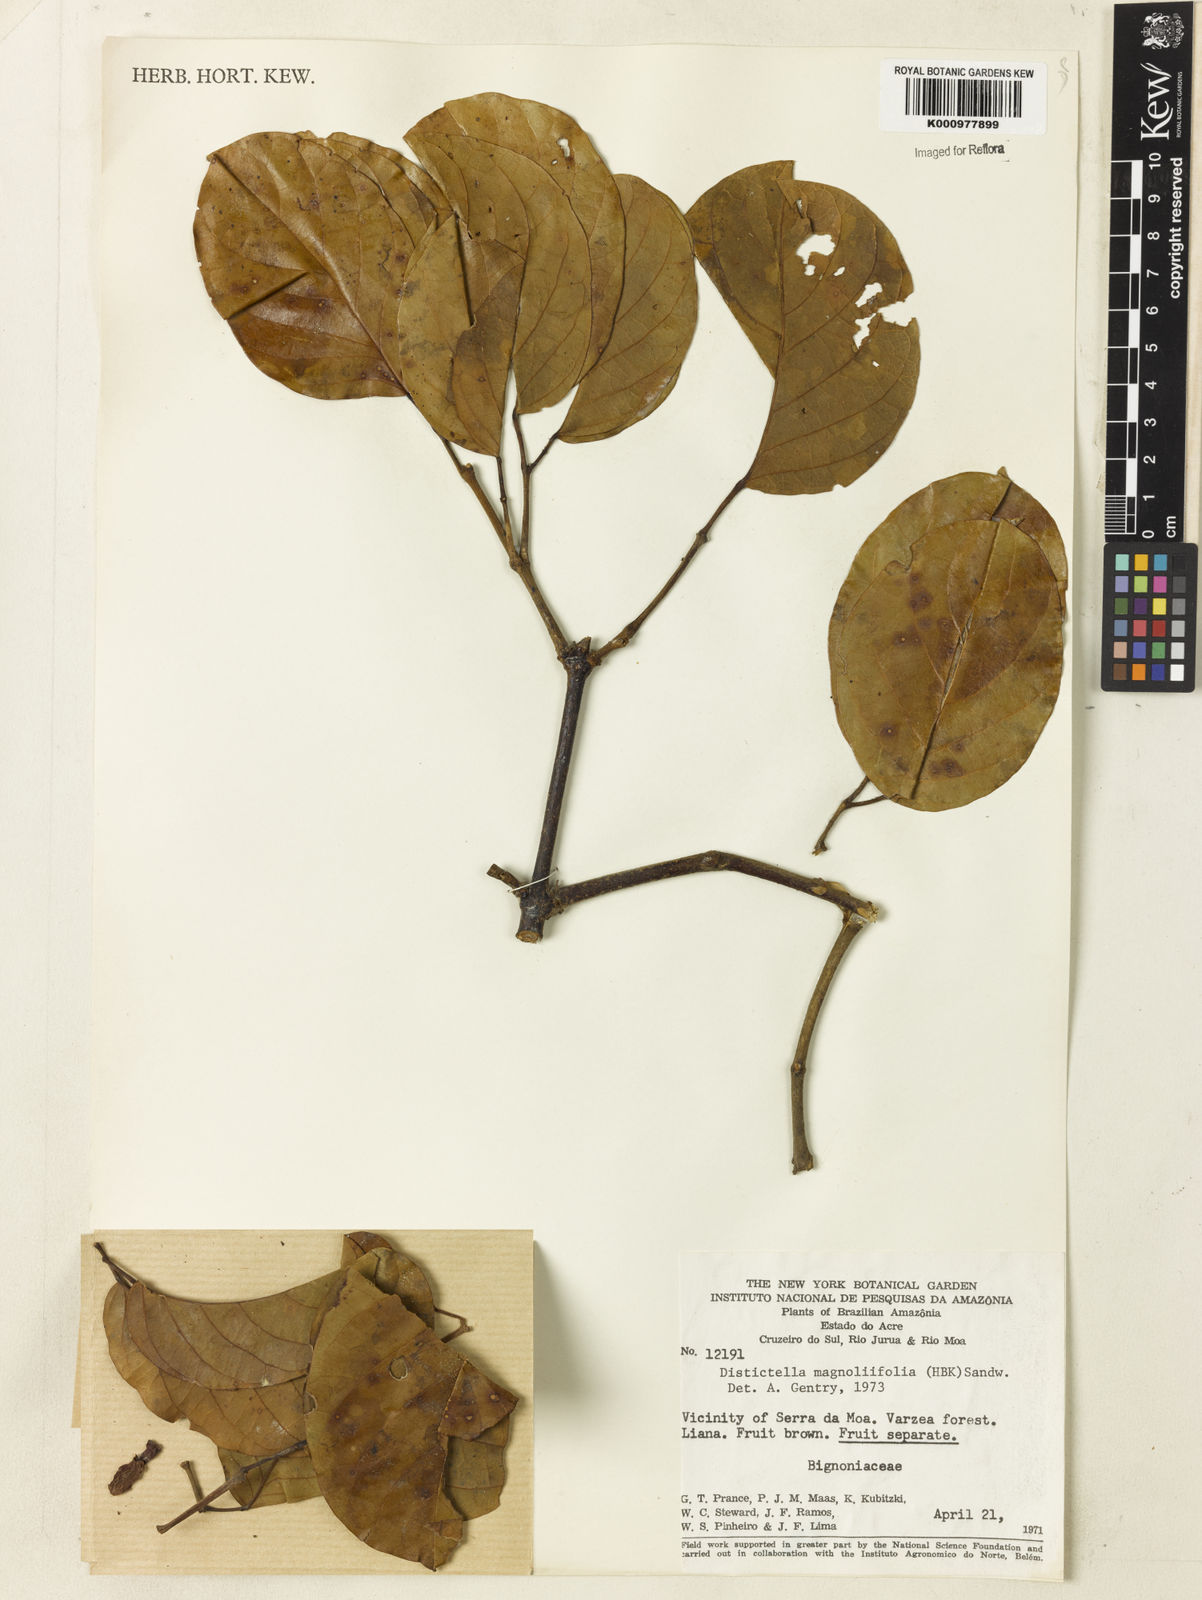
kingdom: Plantae
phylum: Tracheophyta
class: Magnoliopsida
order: Lamiales
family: Bignoniaceae
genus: Amphilophium
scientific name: Amphilophium
